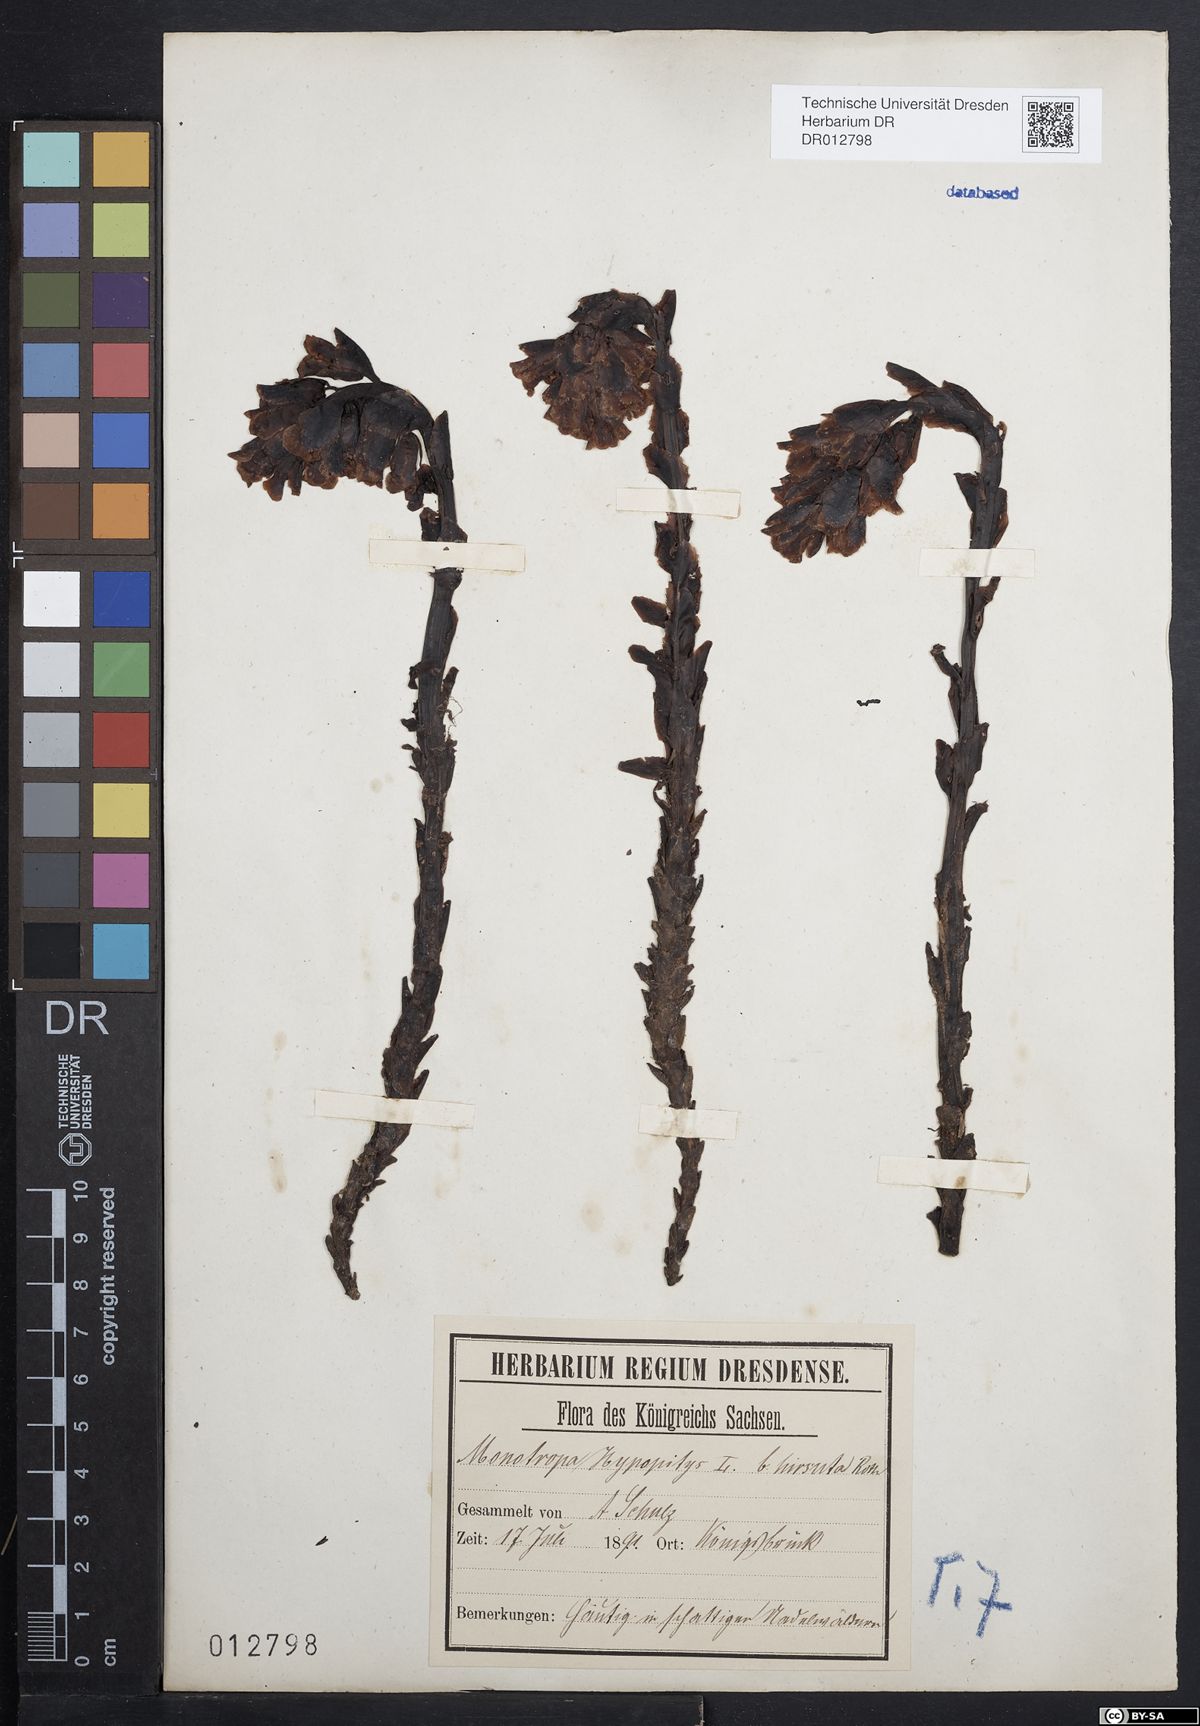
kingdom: Plantae
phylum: Tracheophyta
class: Magnoliopsida
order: Ericales
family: Ericaceae
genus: Hypopitys
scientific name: Hypopitys monotropa
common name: Yellow bird's-nest
